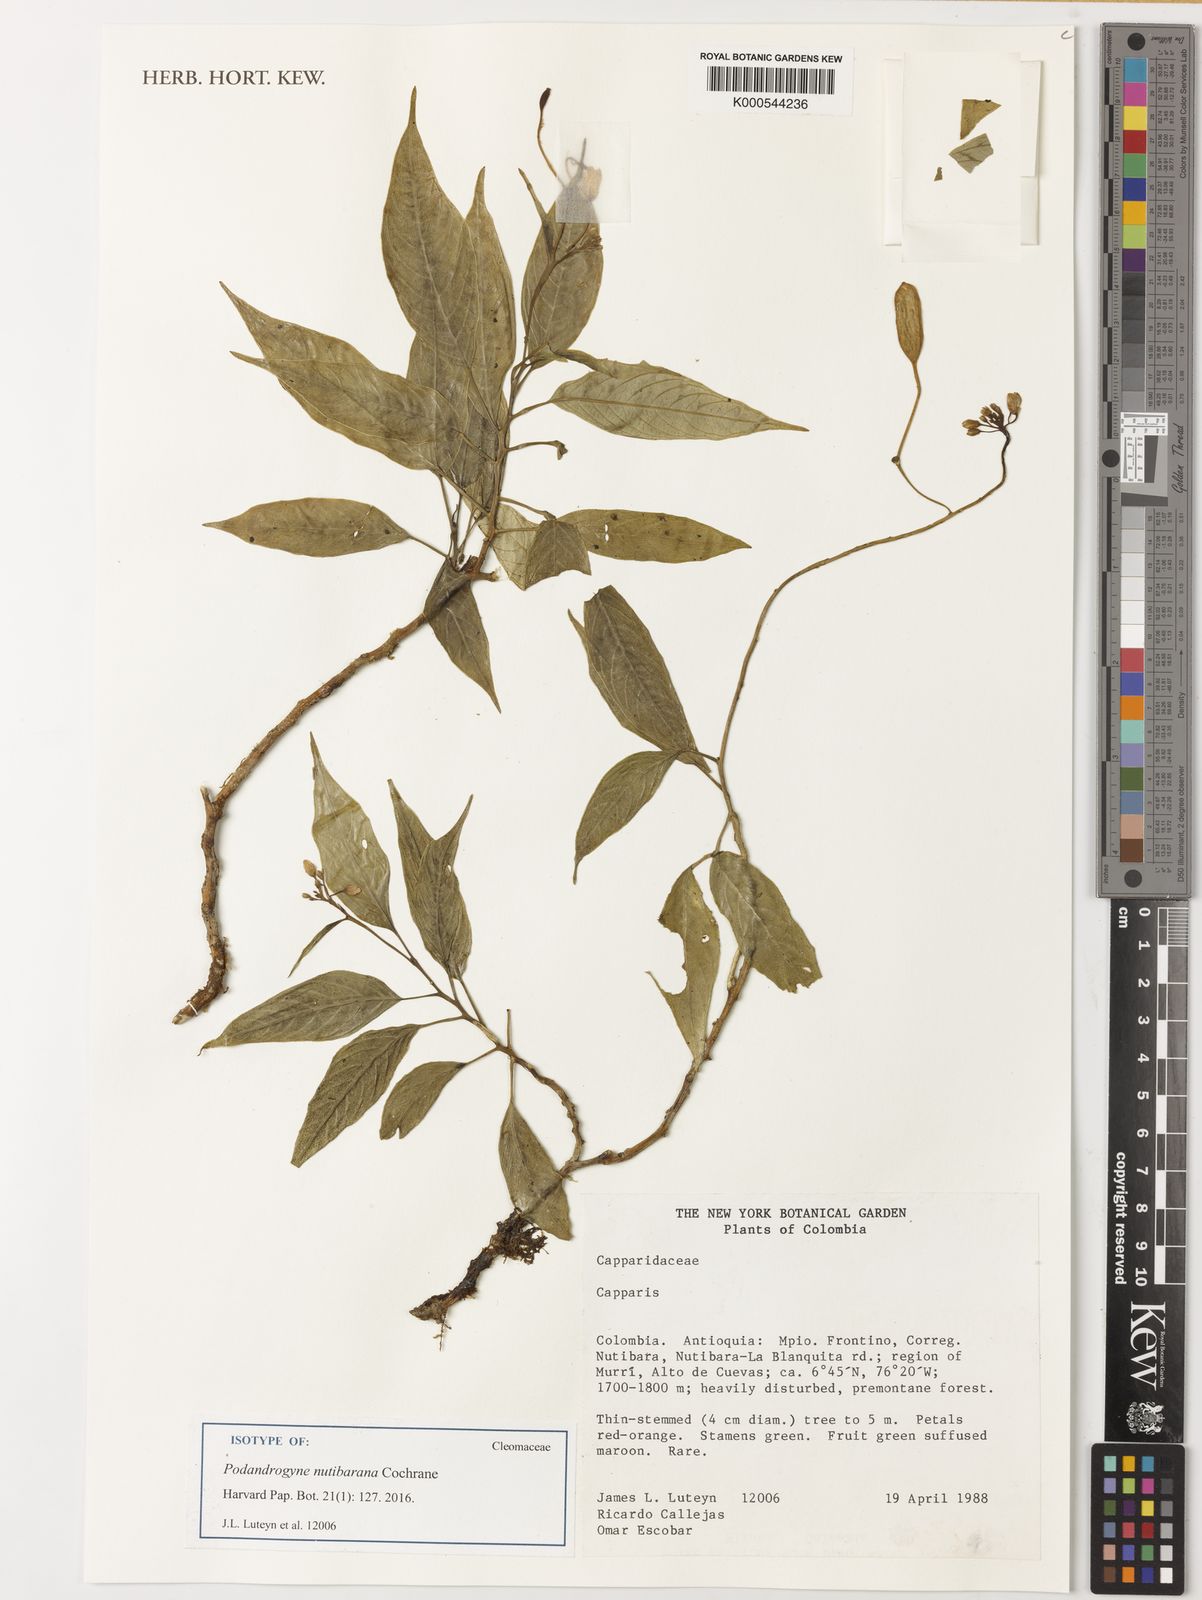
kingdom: Plantae
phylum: Tracheophyta
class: Magnoliopsida
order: Brassicales
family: Cleomaceae
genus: Podandrogyne
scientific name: Podandrogyne nutibarana
